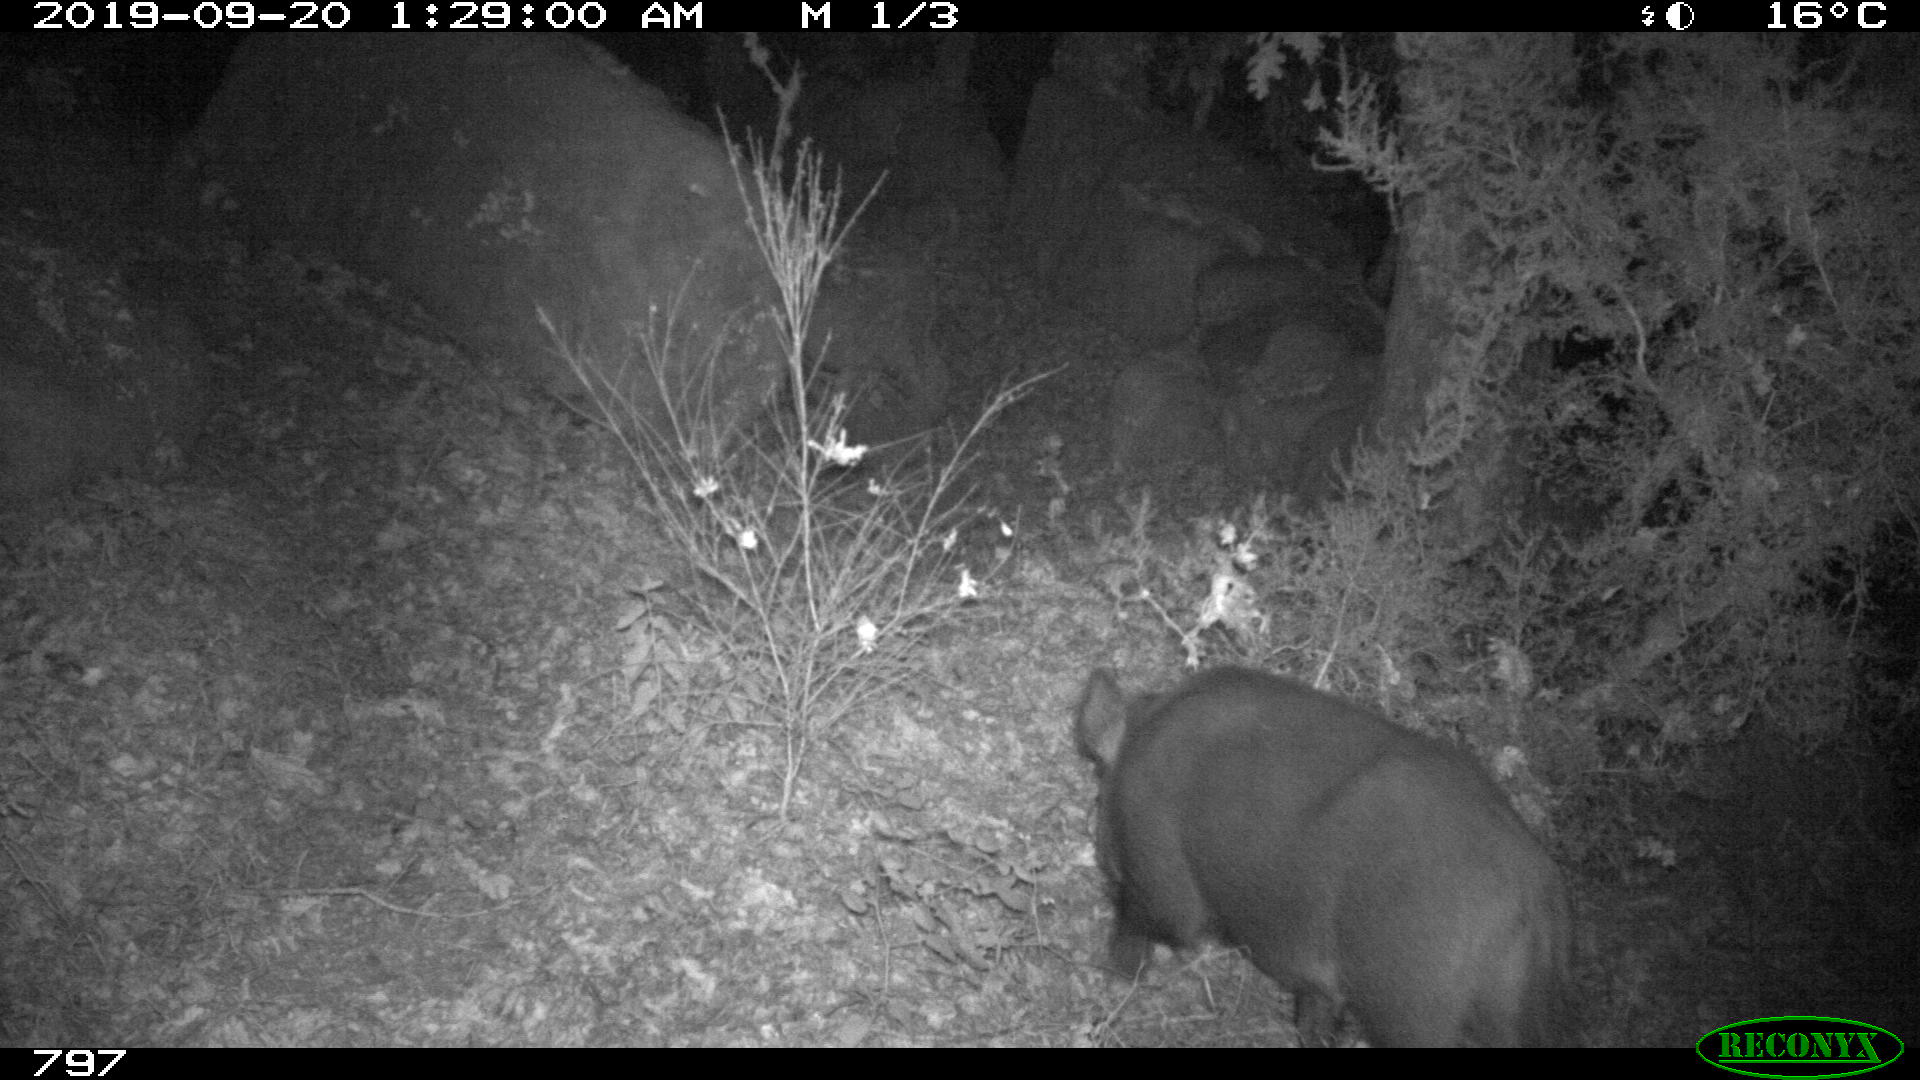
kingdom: Animalia
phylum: Chordata
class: Mammalia
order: Artiodactyla
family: Suidae
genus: Sus
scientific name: Sus scrofa
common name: Wild boar
